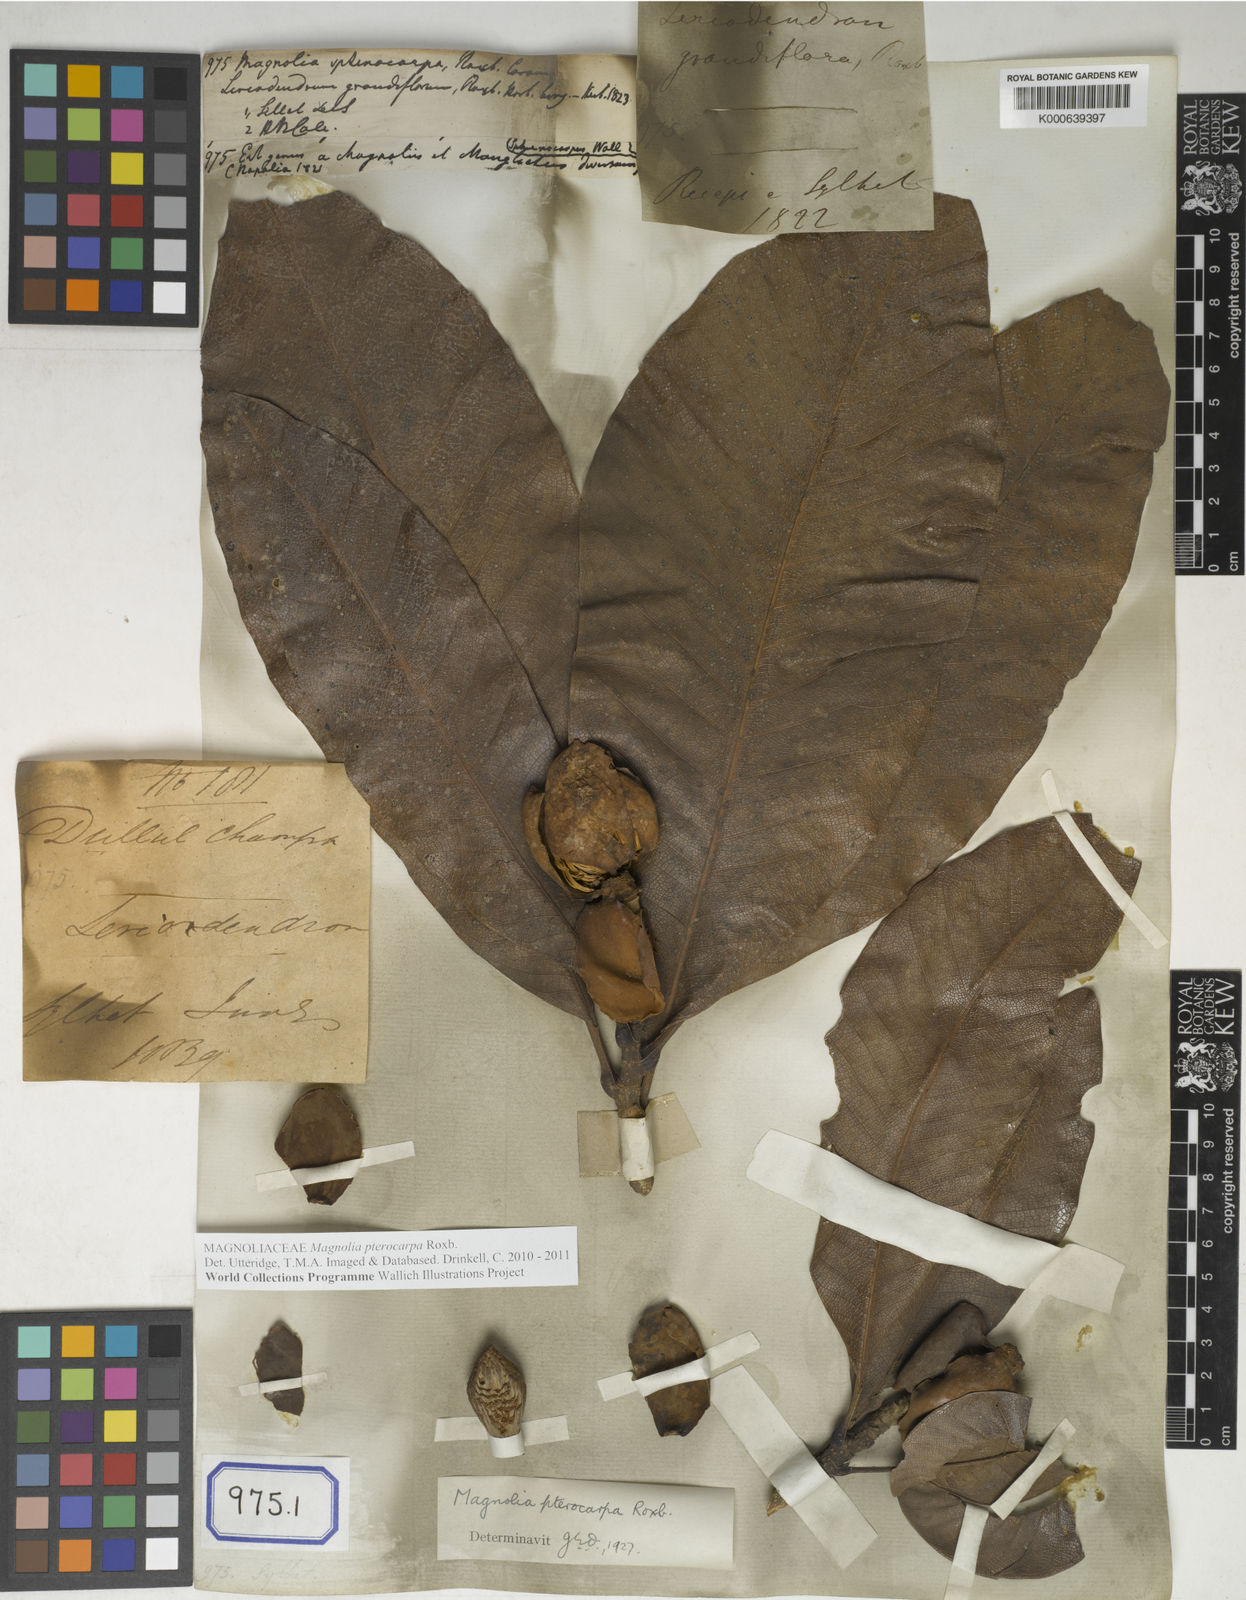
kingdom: Plantae
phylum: Tracheophyta
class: Magnoliopsida
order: Magnoliales
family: Magnoliaceae
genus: Magnolia
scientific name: Magnolia
